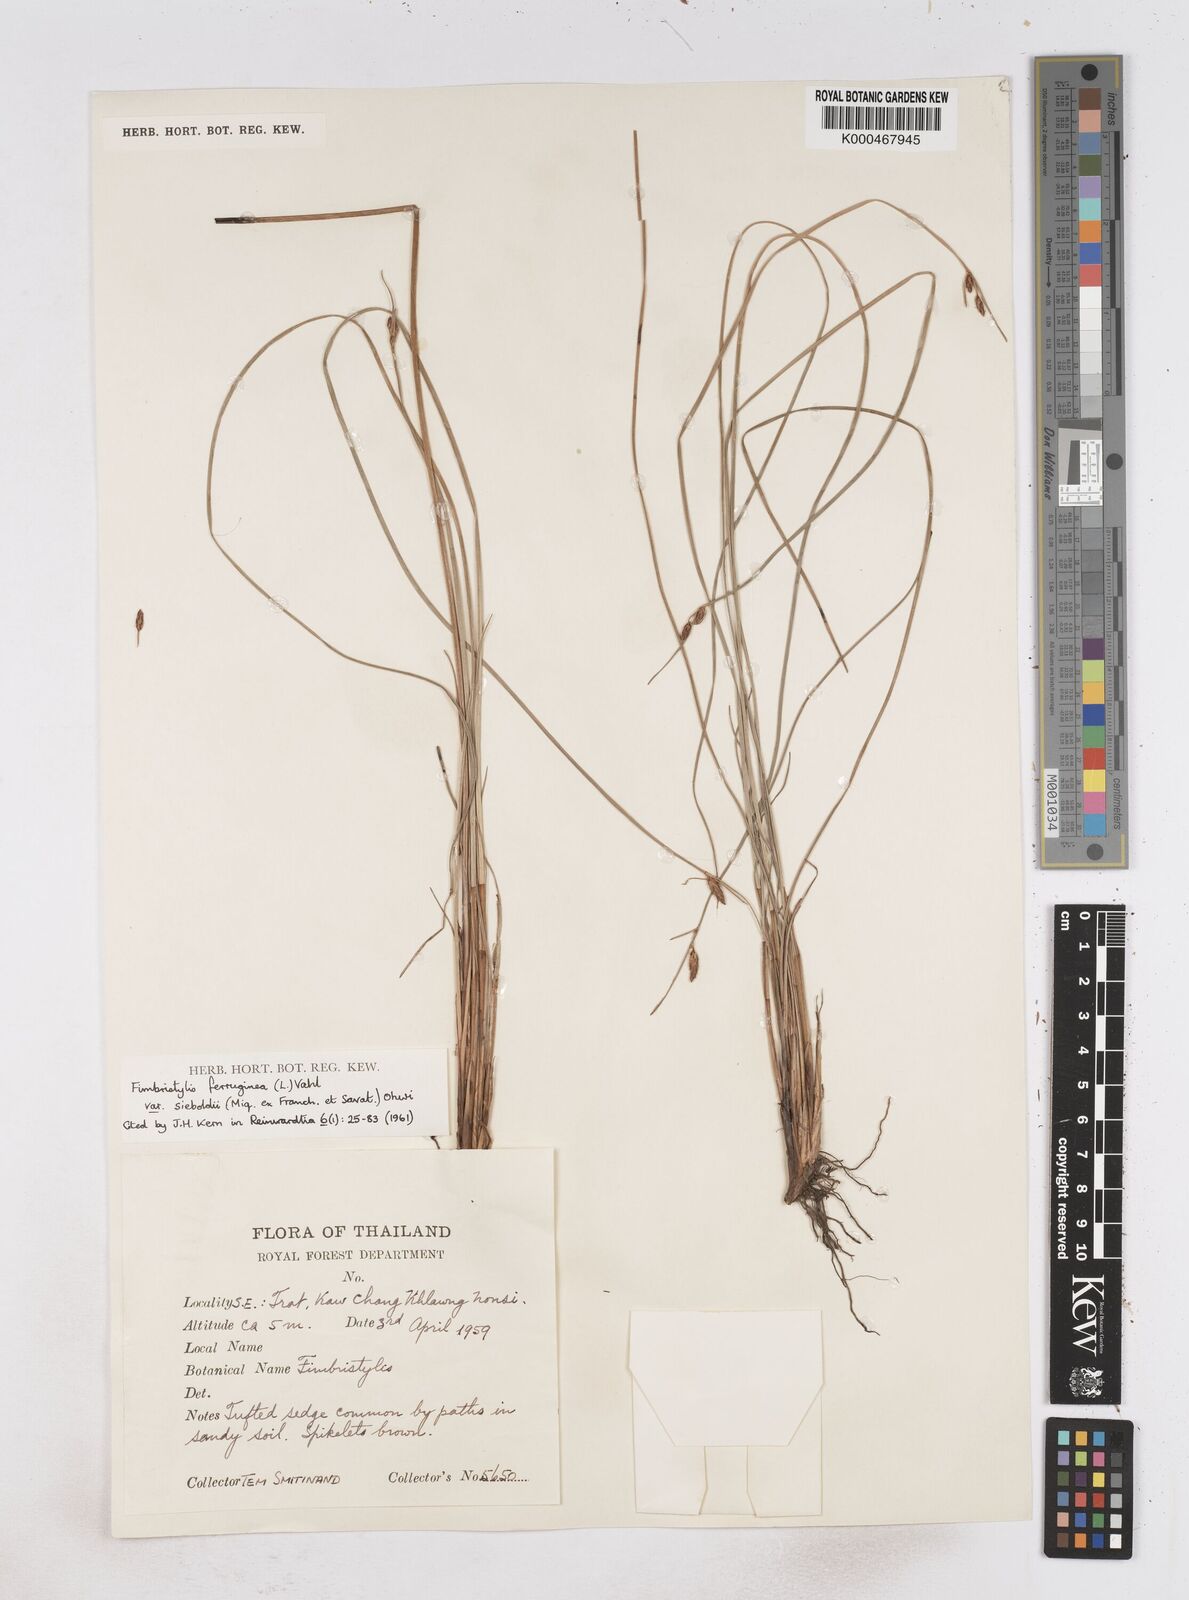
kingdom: Plantae
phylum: Tracheophyta
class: Liliopsida
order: Poales
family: Cyperaceae
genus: Fimbristylis
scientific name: Fimbristylis ferruginea
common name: West indian fimbry
